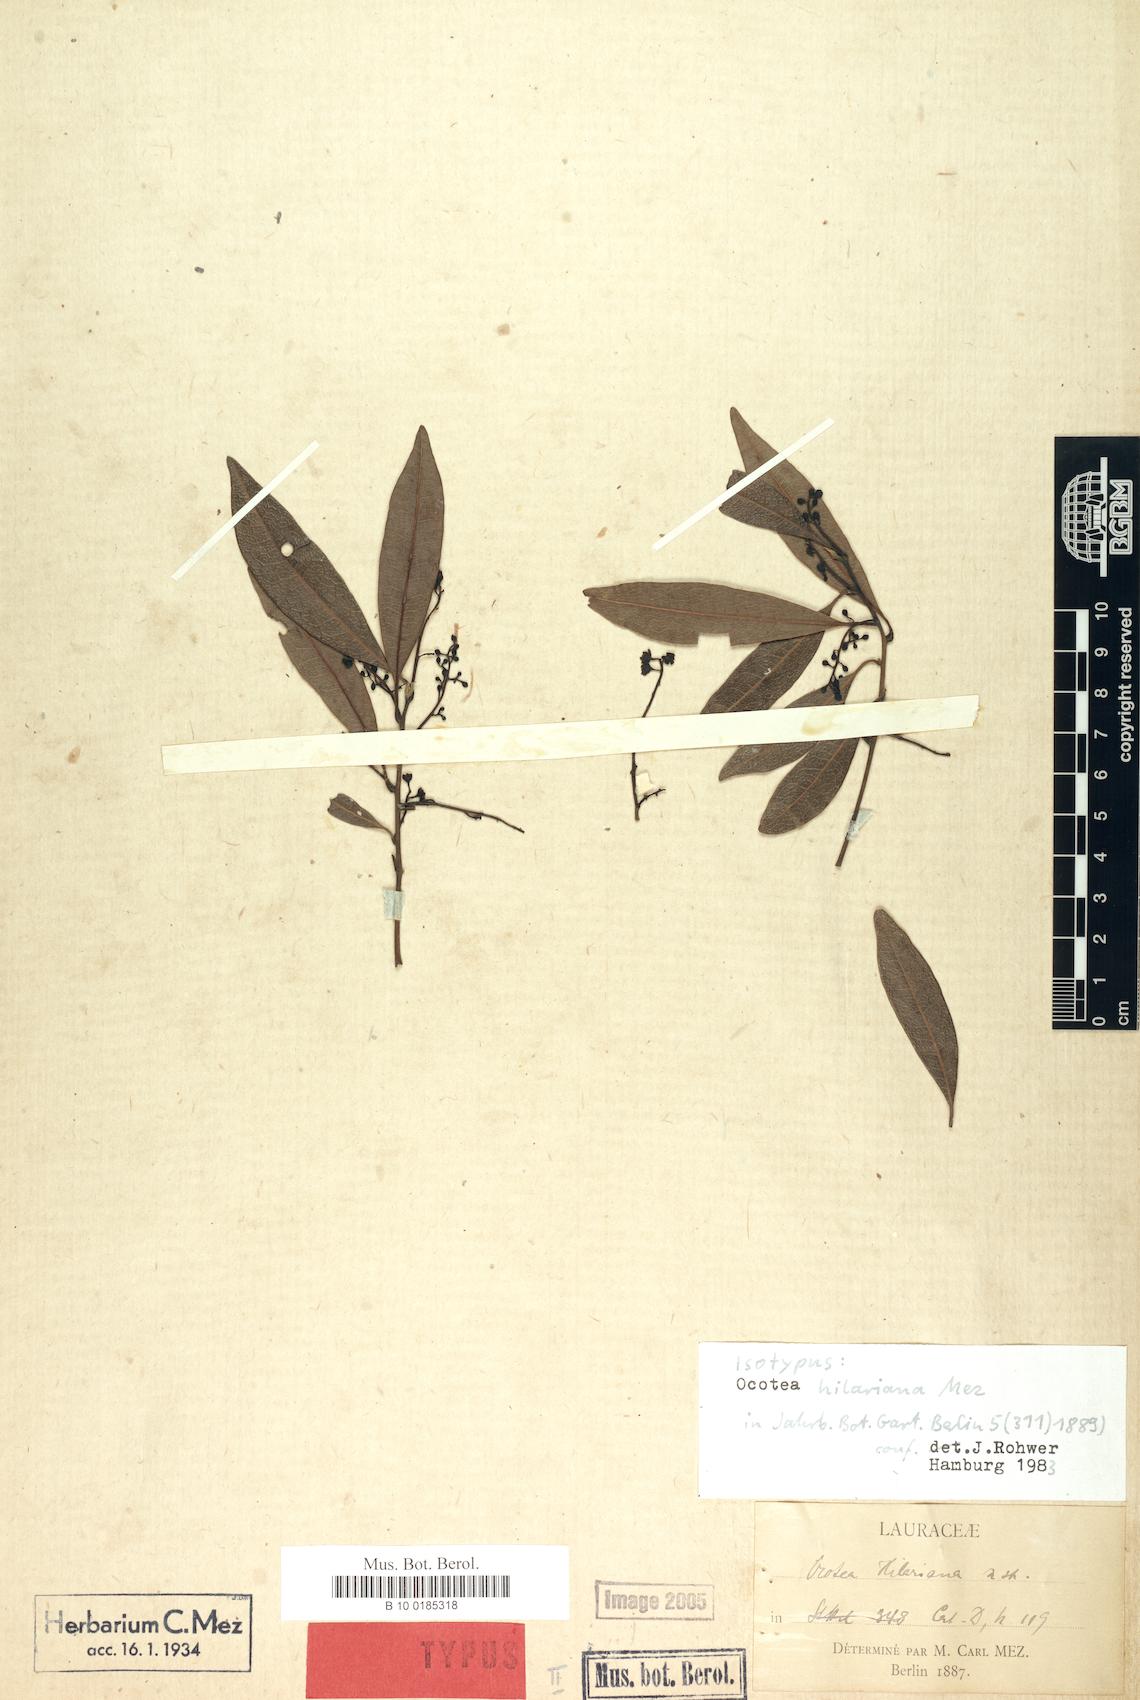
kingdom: Plantae
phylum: Tracheophyta
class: Magnoliopsida
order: Laurales
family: Lauraceae
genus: Ocotea
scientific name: Ocotea hilariana
